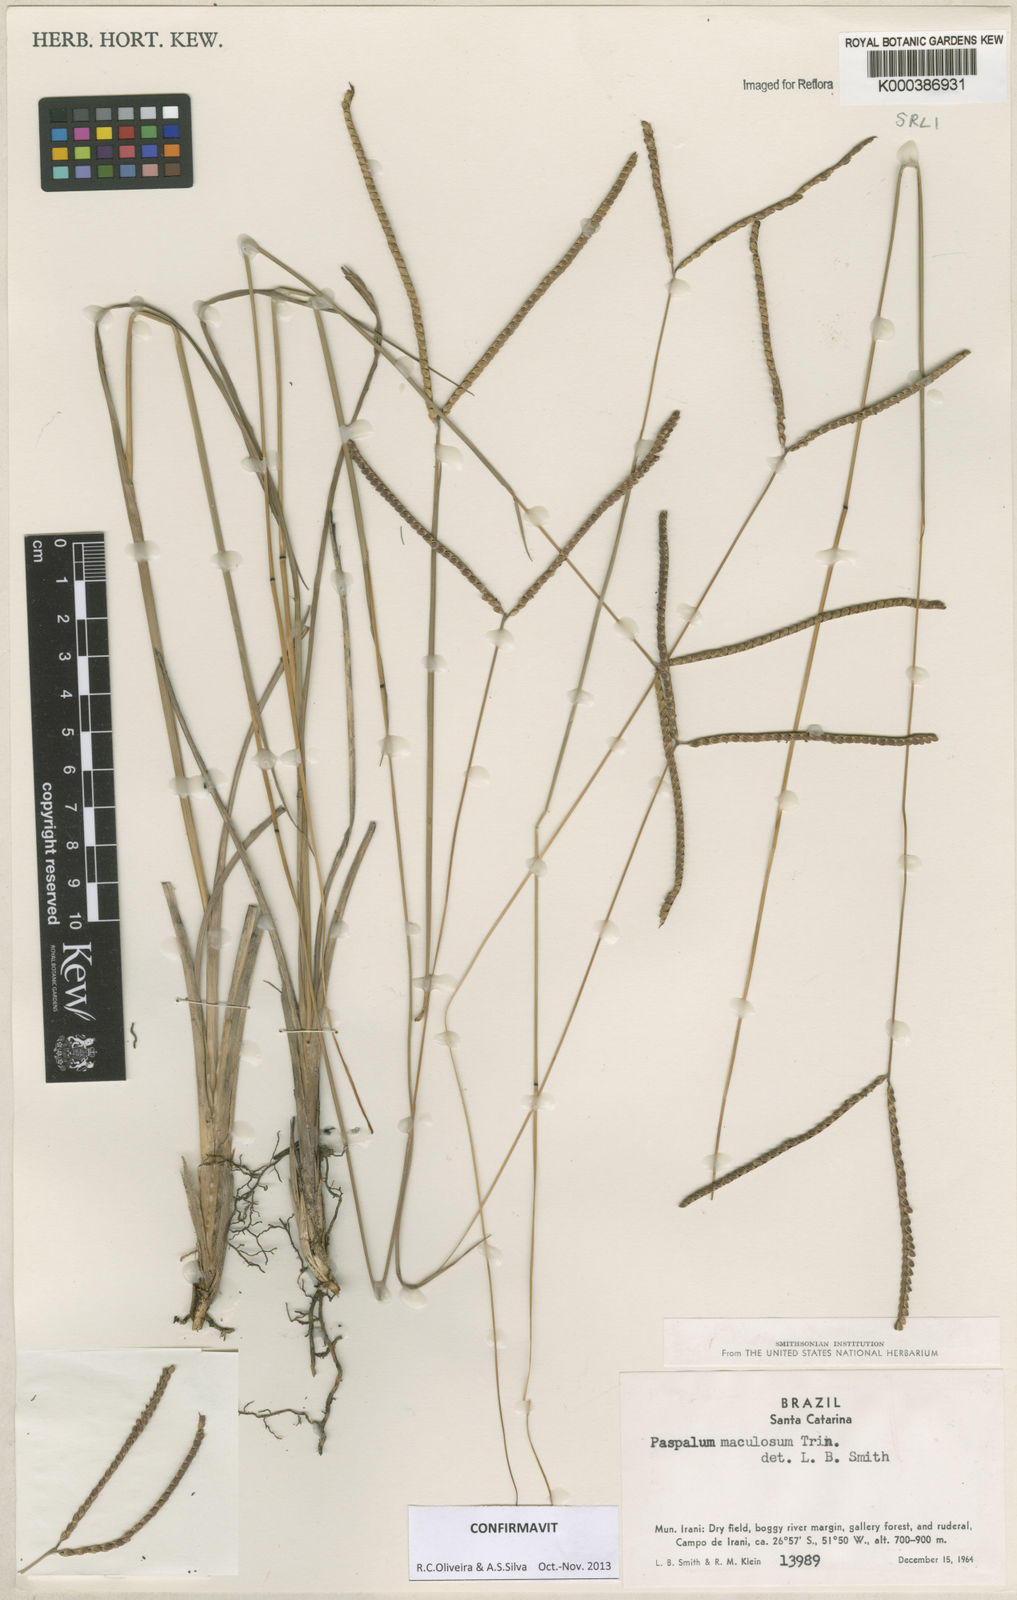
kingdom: Plantae
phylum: Tracheophyta
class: Liliopsida
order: Poales
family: Poaceae
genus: Paspalum
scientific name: Paspalum maculosum
